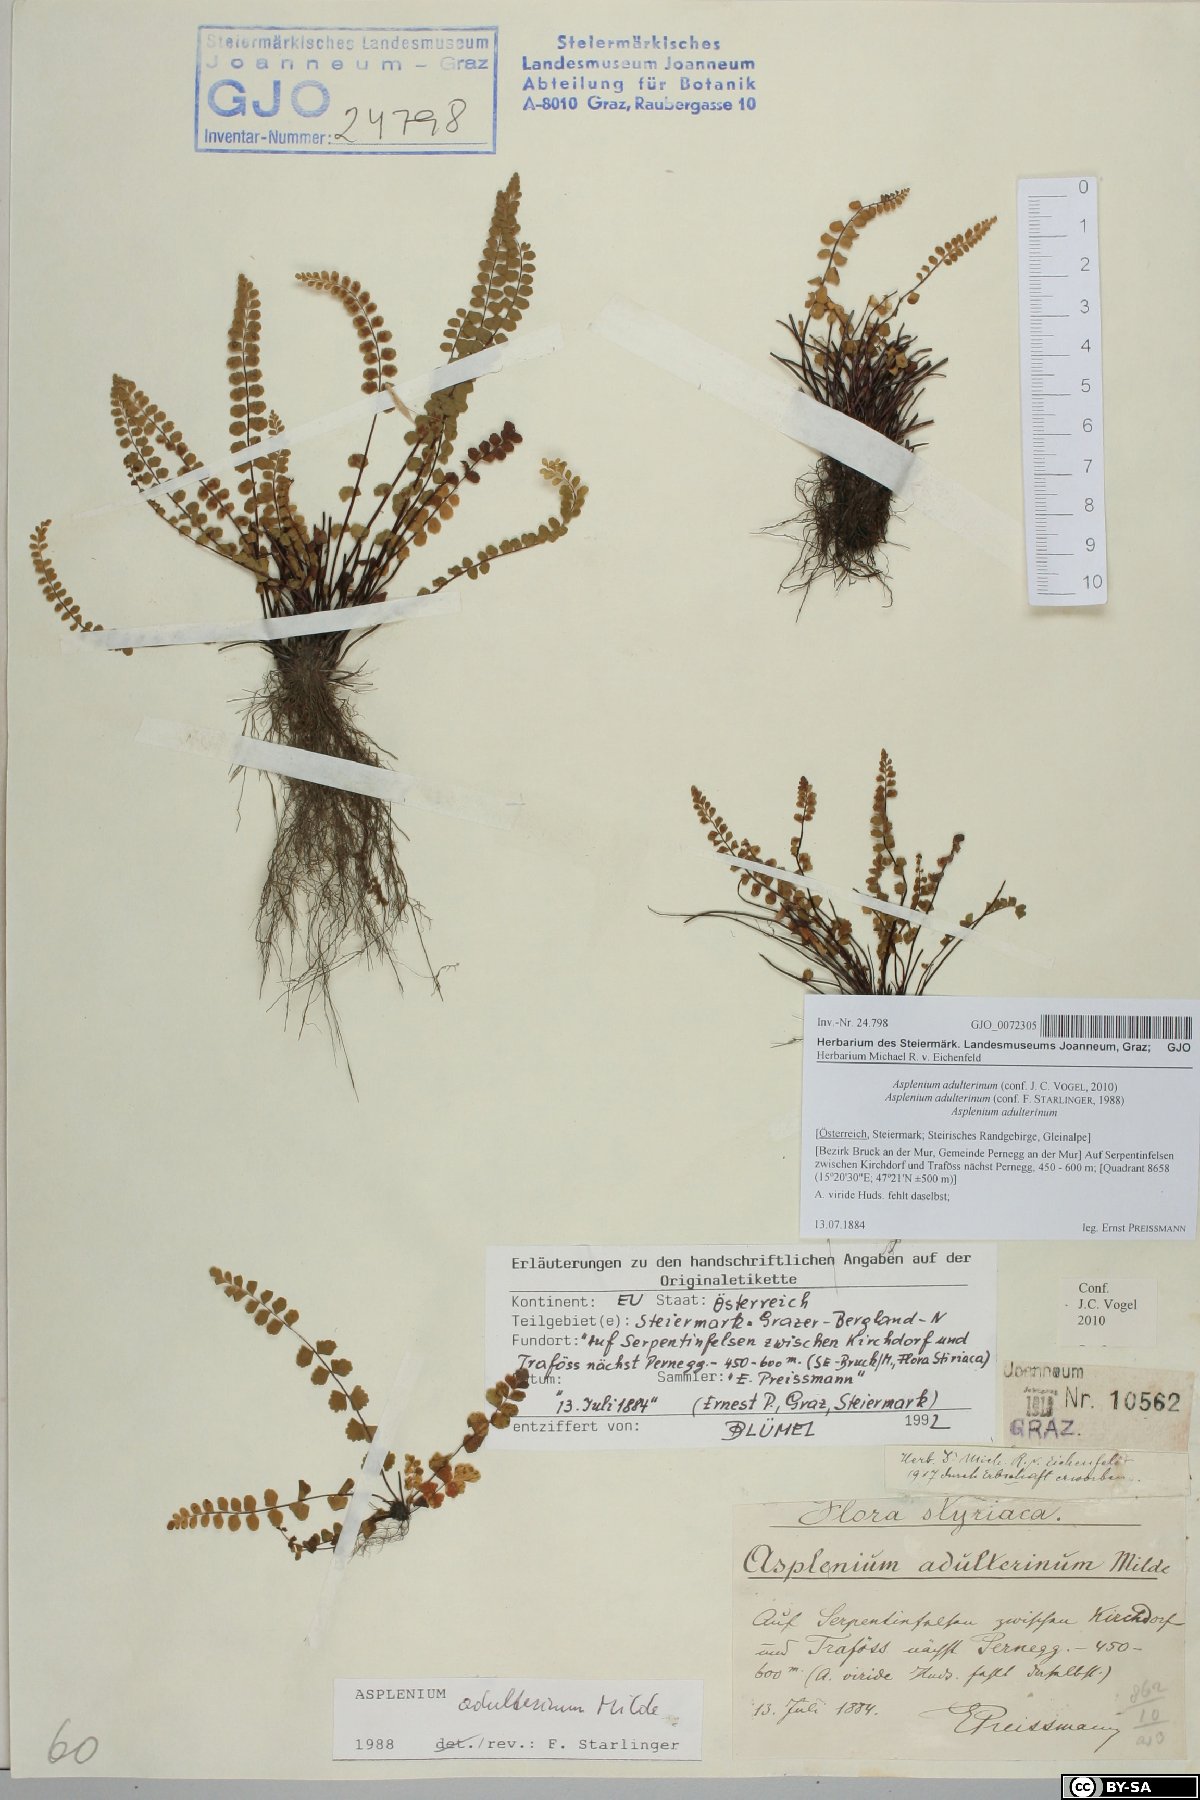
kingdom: Plantae
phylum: Tracheophyta
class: Polypodiopsida
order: Polypodiales
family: Aspleniaceae
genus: Asplenium
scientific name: Asplenium adulterinum
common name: Adulterated spleenwort
